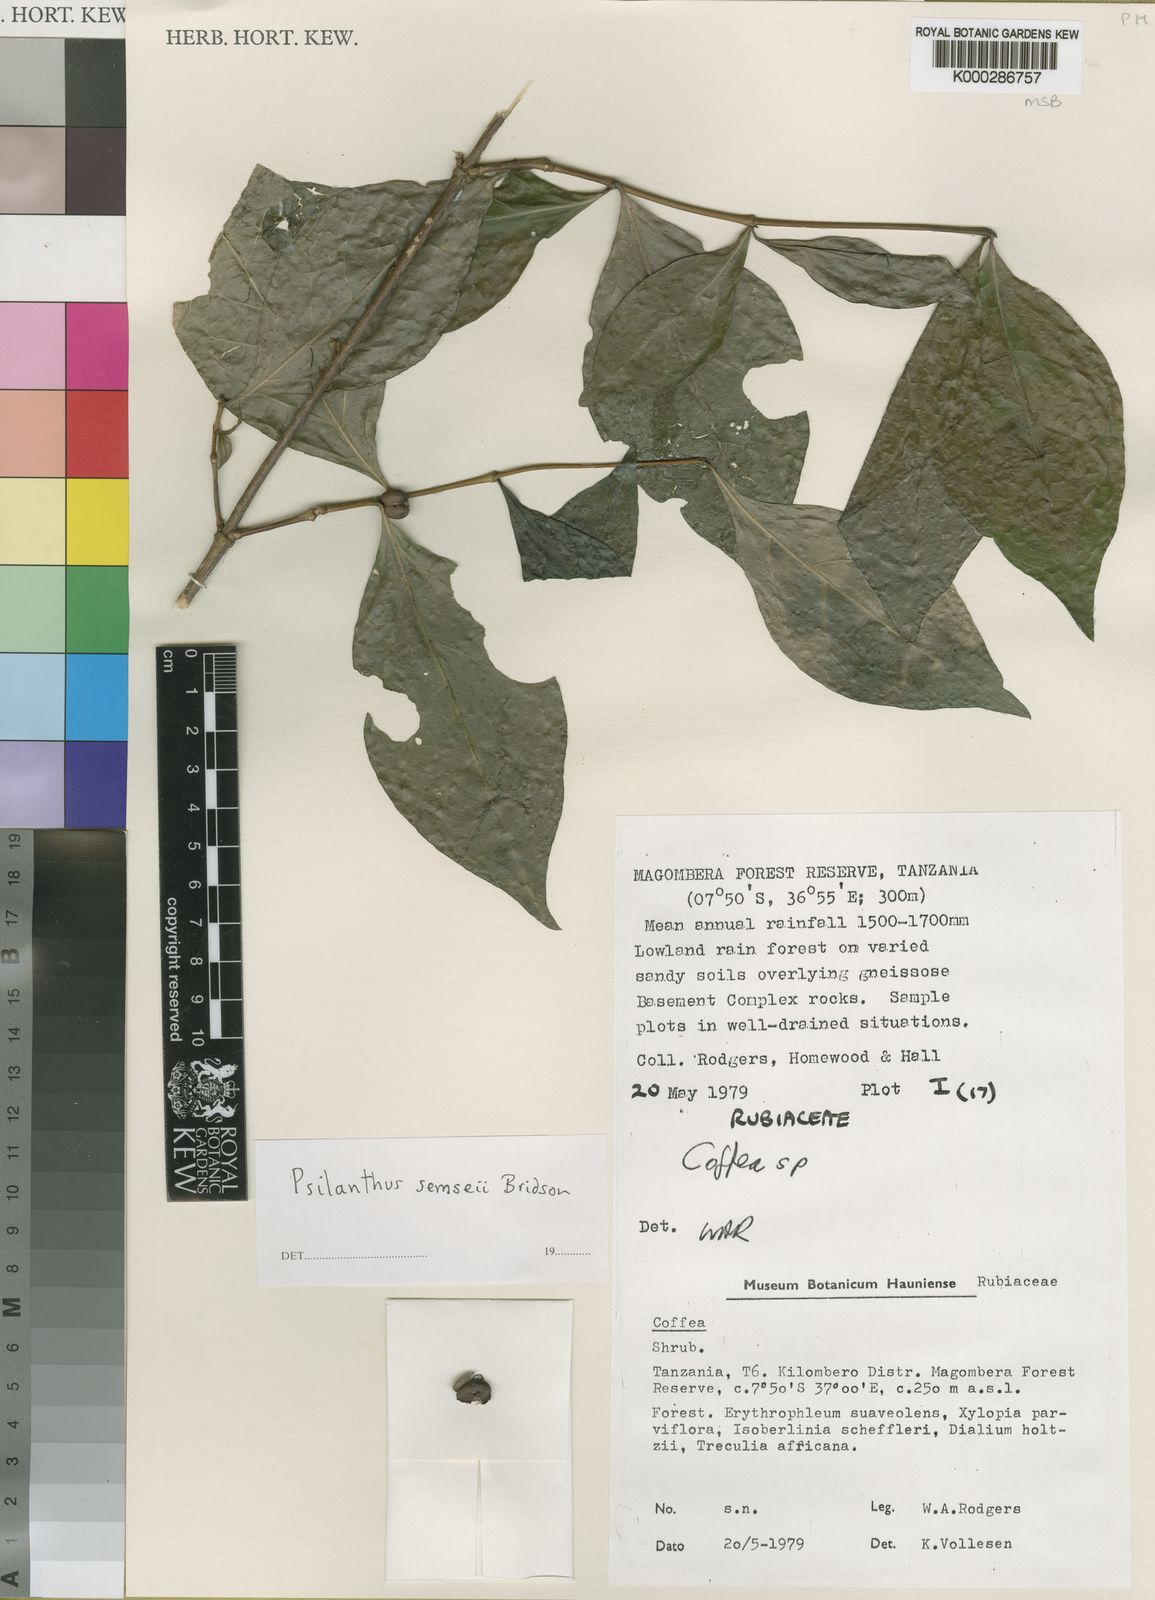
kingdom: Plantae
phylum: Tracheophyta
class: Magnoliopsida
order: Gentianales
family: Rubiaceae
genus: Coffea
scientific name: Coffea semsei
